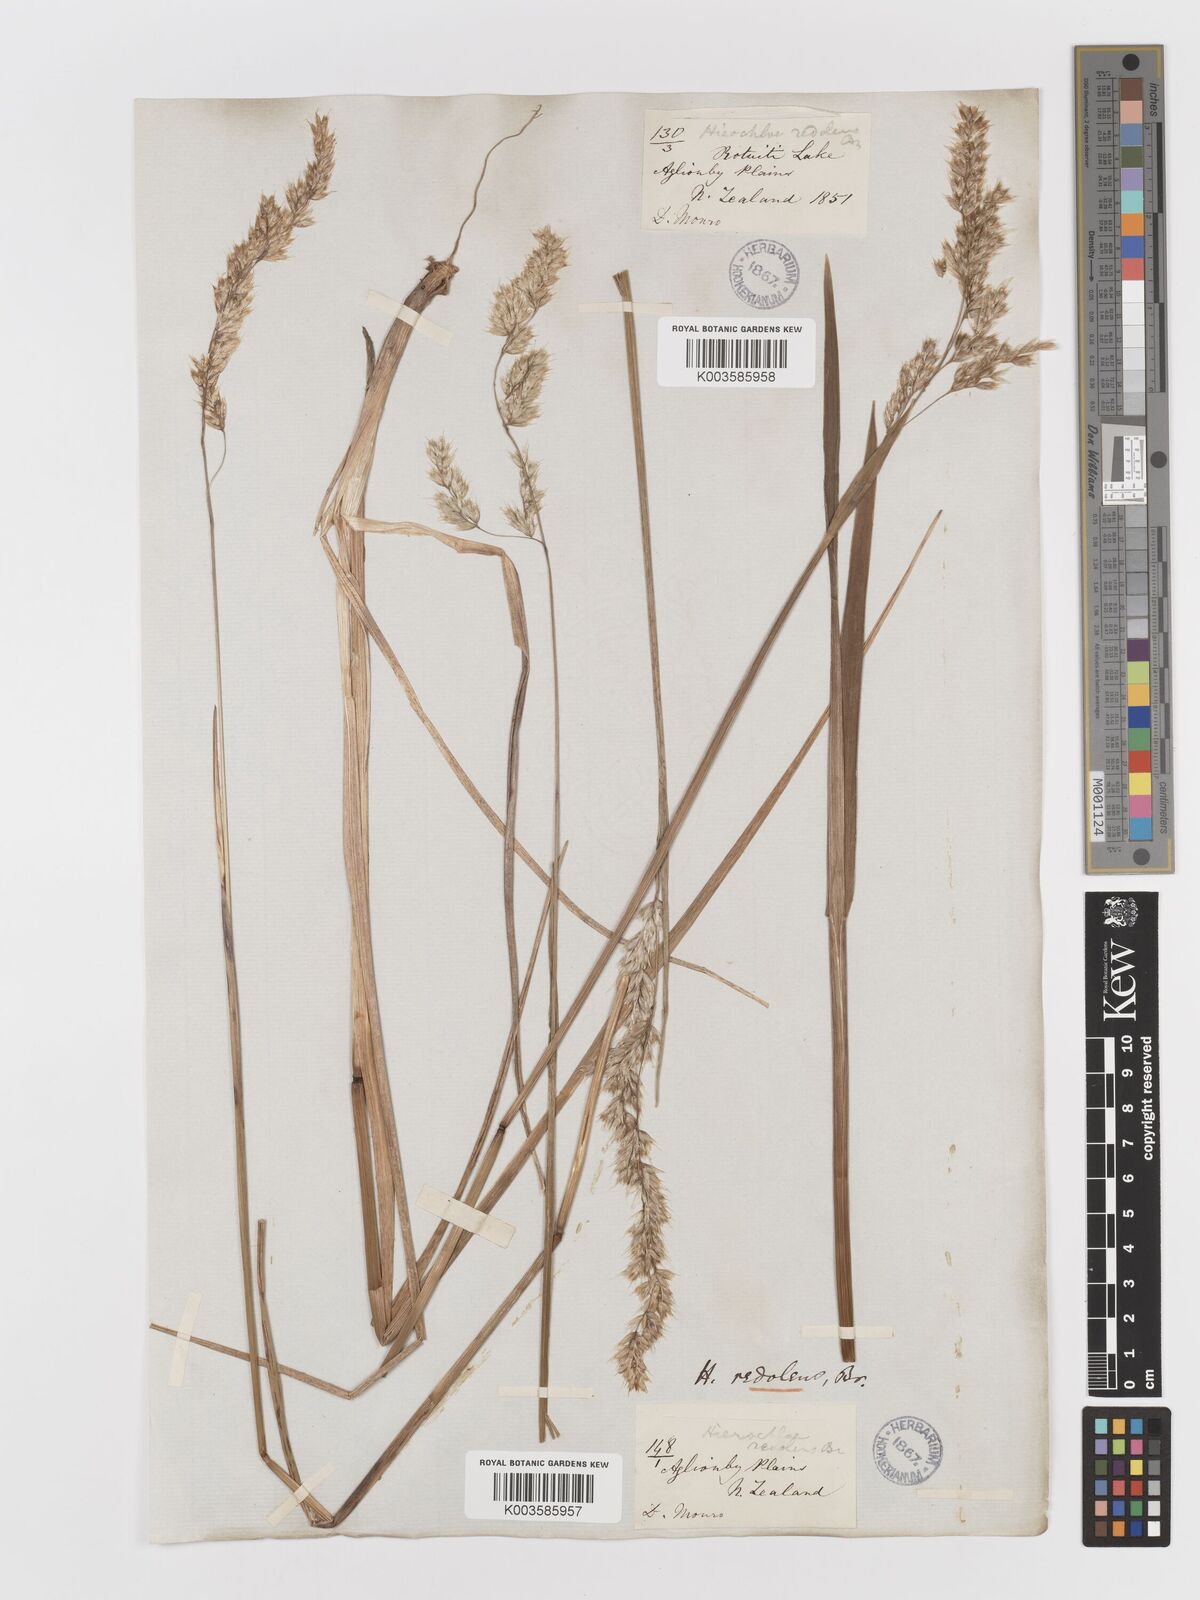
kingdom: Plantae
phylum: Tracheophyta
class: Liliopsida
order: Poales
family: Poaceae
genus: Anthoxanthum
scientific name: Anthoxanthum redolens
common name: Sweet holy grass
